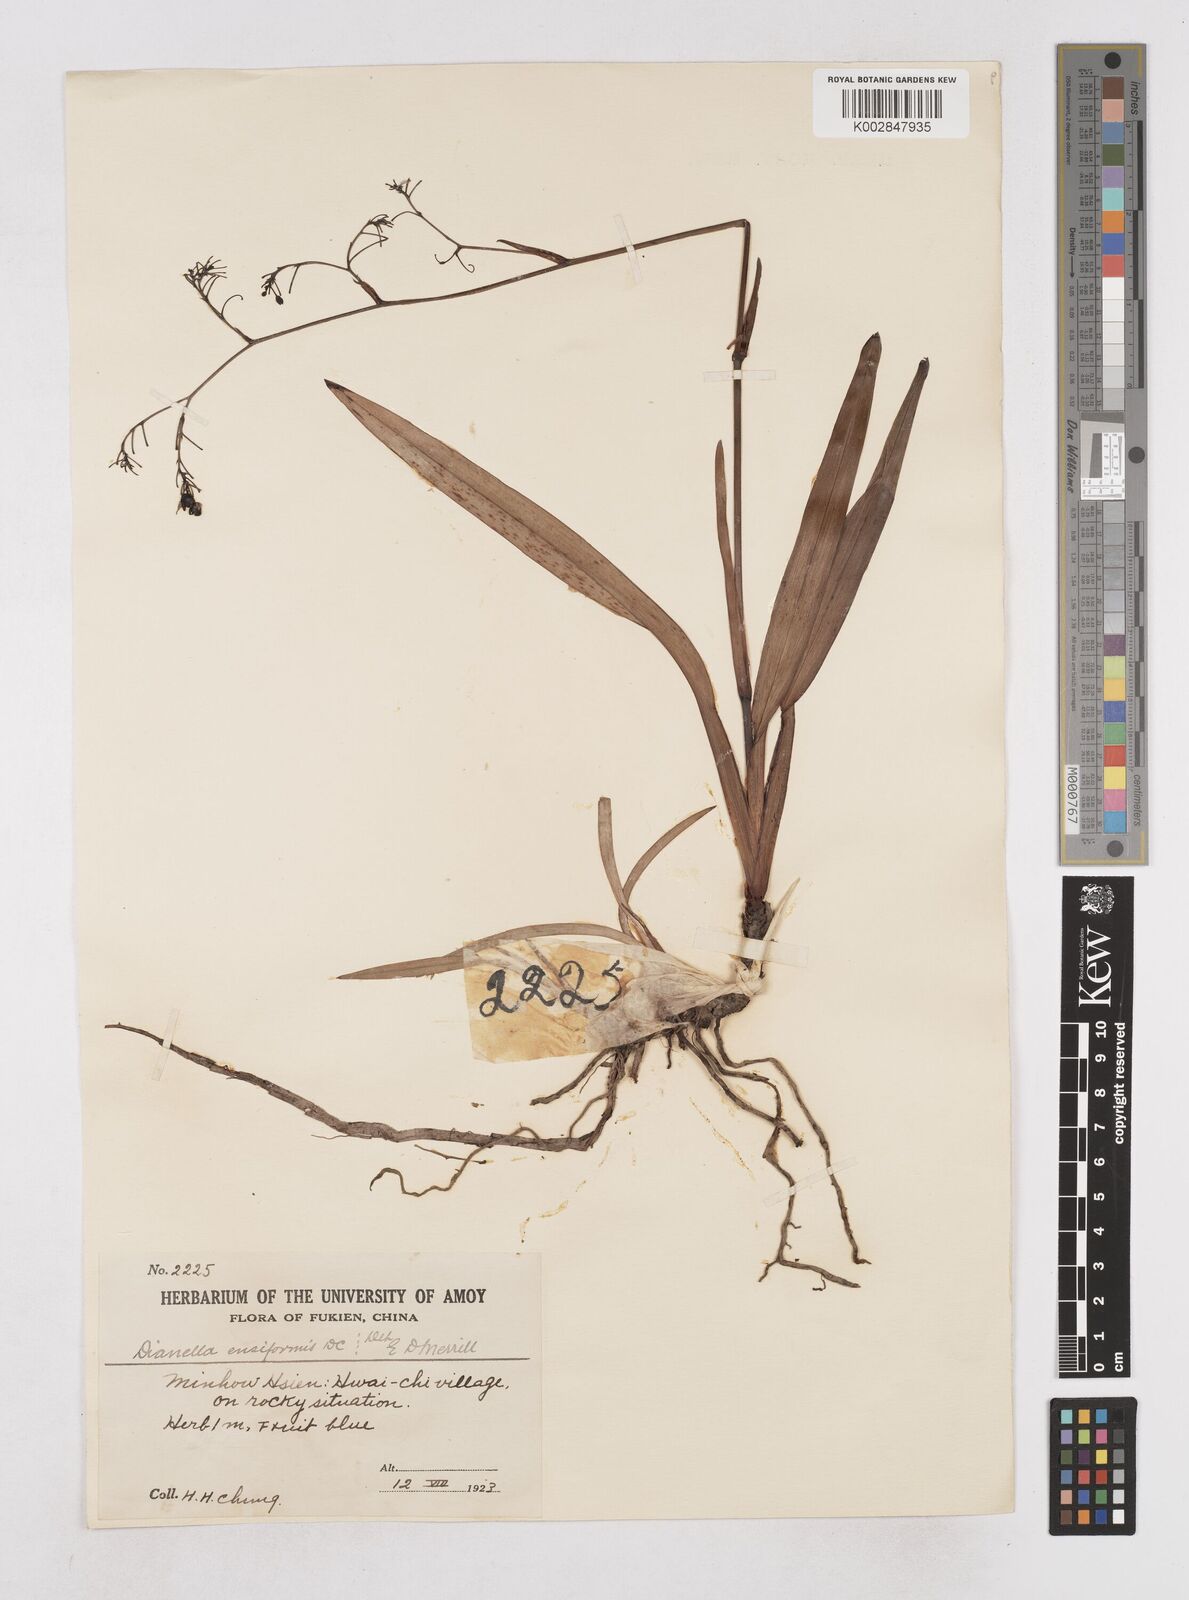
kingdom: Plantae
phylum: Tracheophyta
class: Liliopsida
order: Asparagales
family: Asphodelaceae
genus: Dianella
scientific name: Dianella ensifolia
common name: New zealand lilyplant
